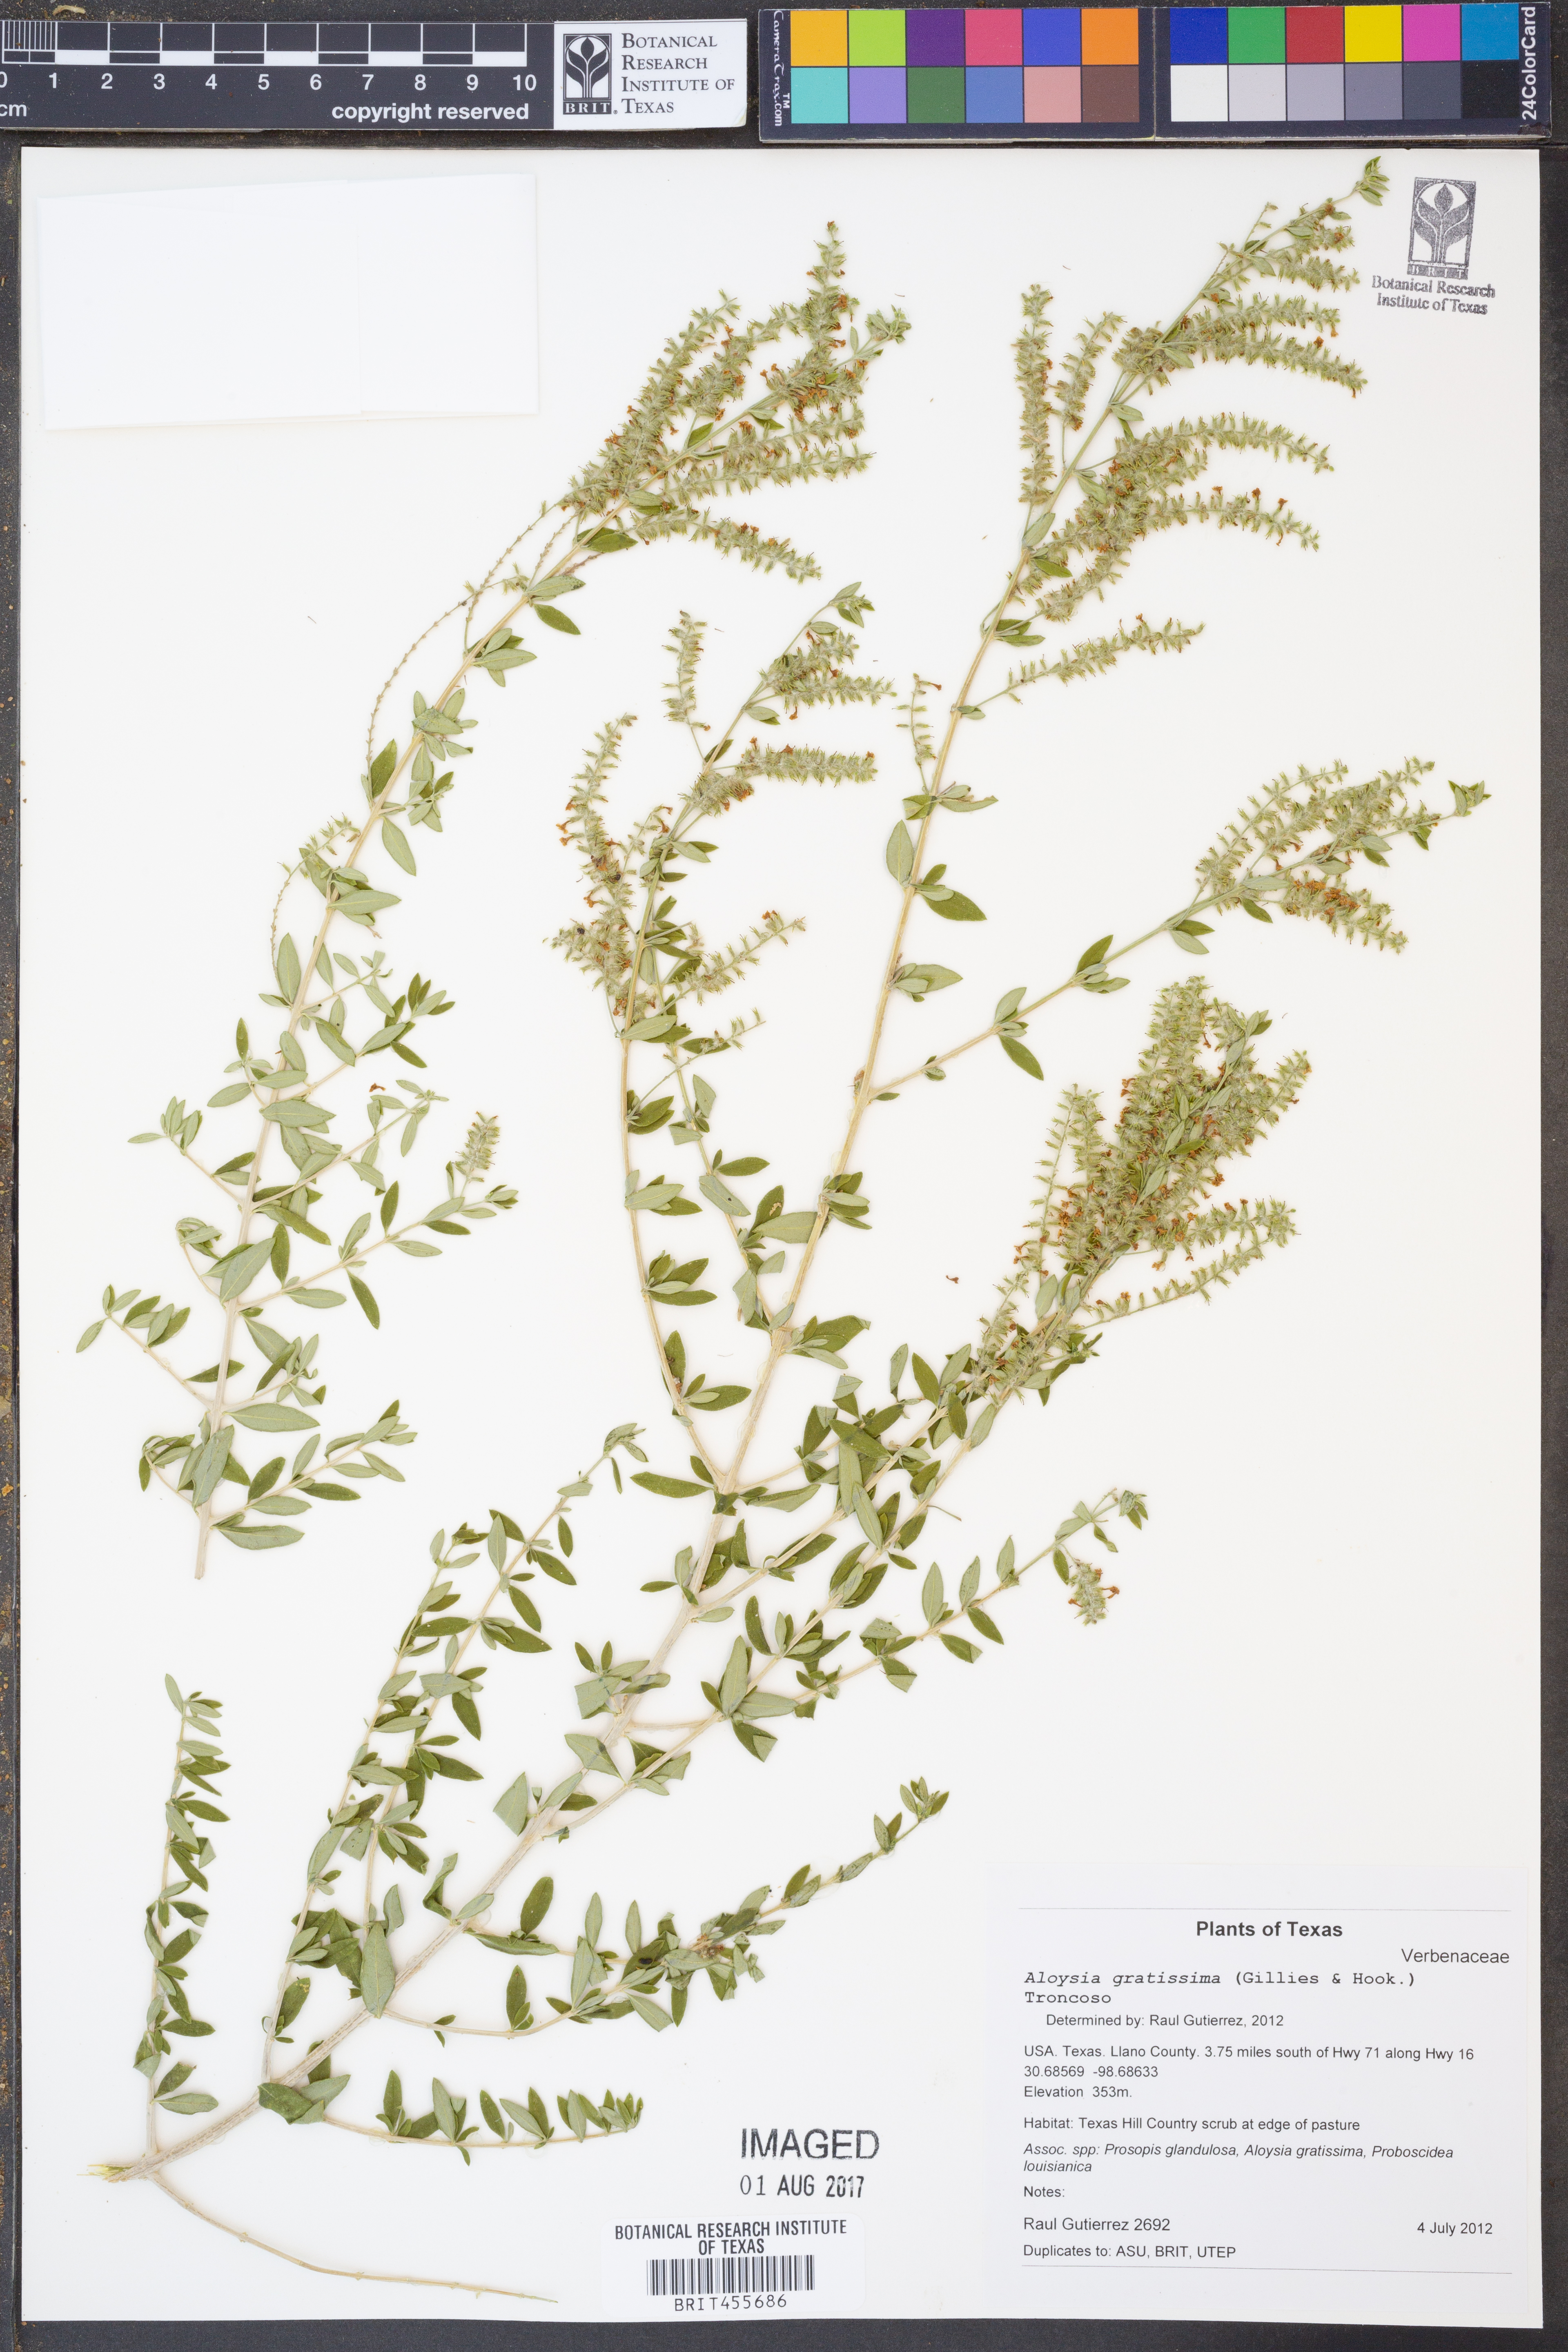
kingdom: Plantae
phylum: Tracheophyta
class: Magnoliopsida
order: Lamiales
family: Verbenaceae
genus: Aloysia
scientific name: Aloysia gratissima
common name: Common bee-brush
